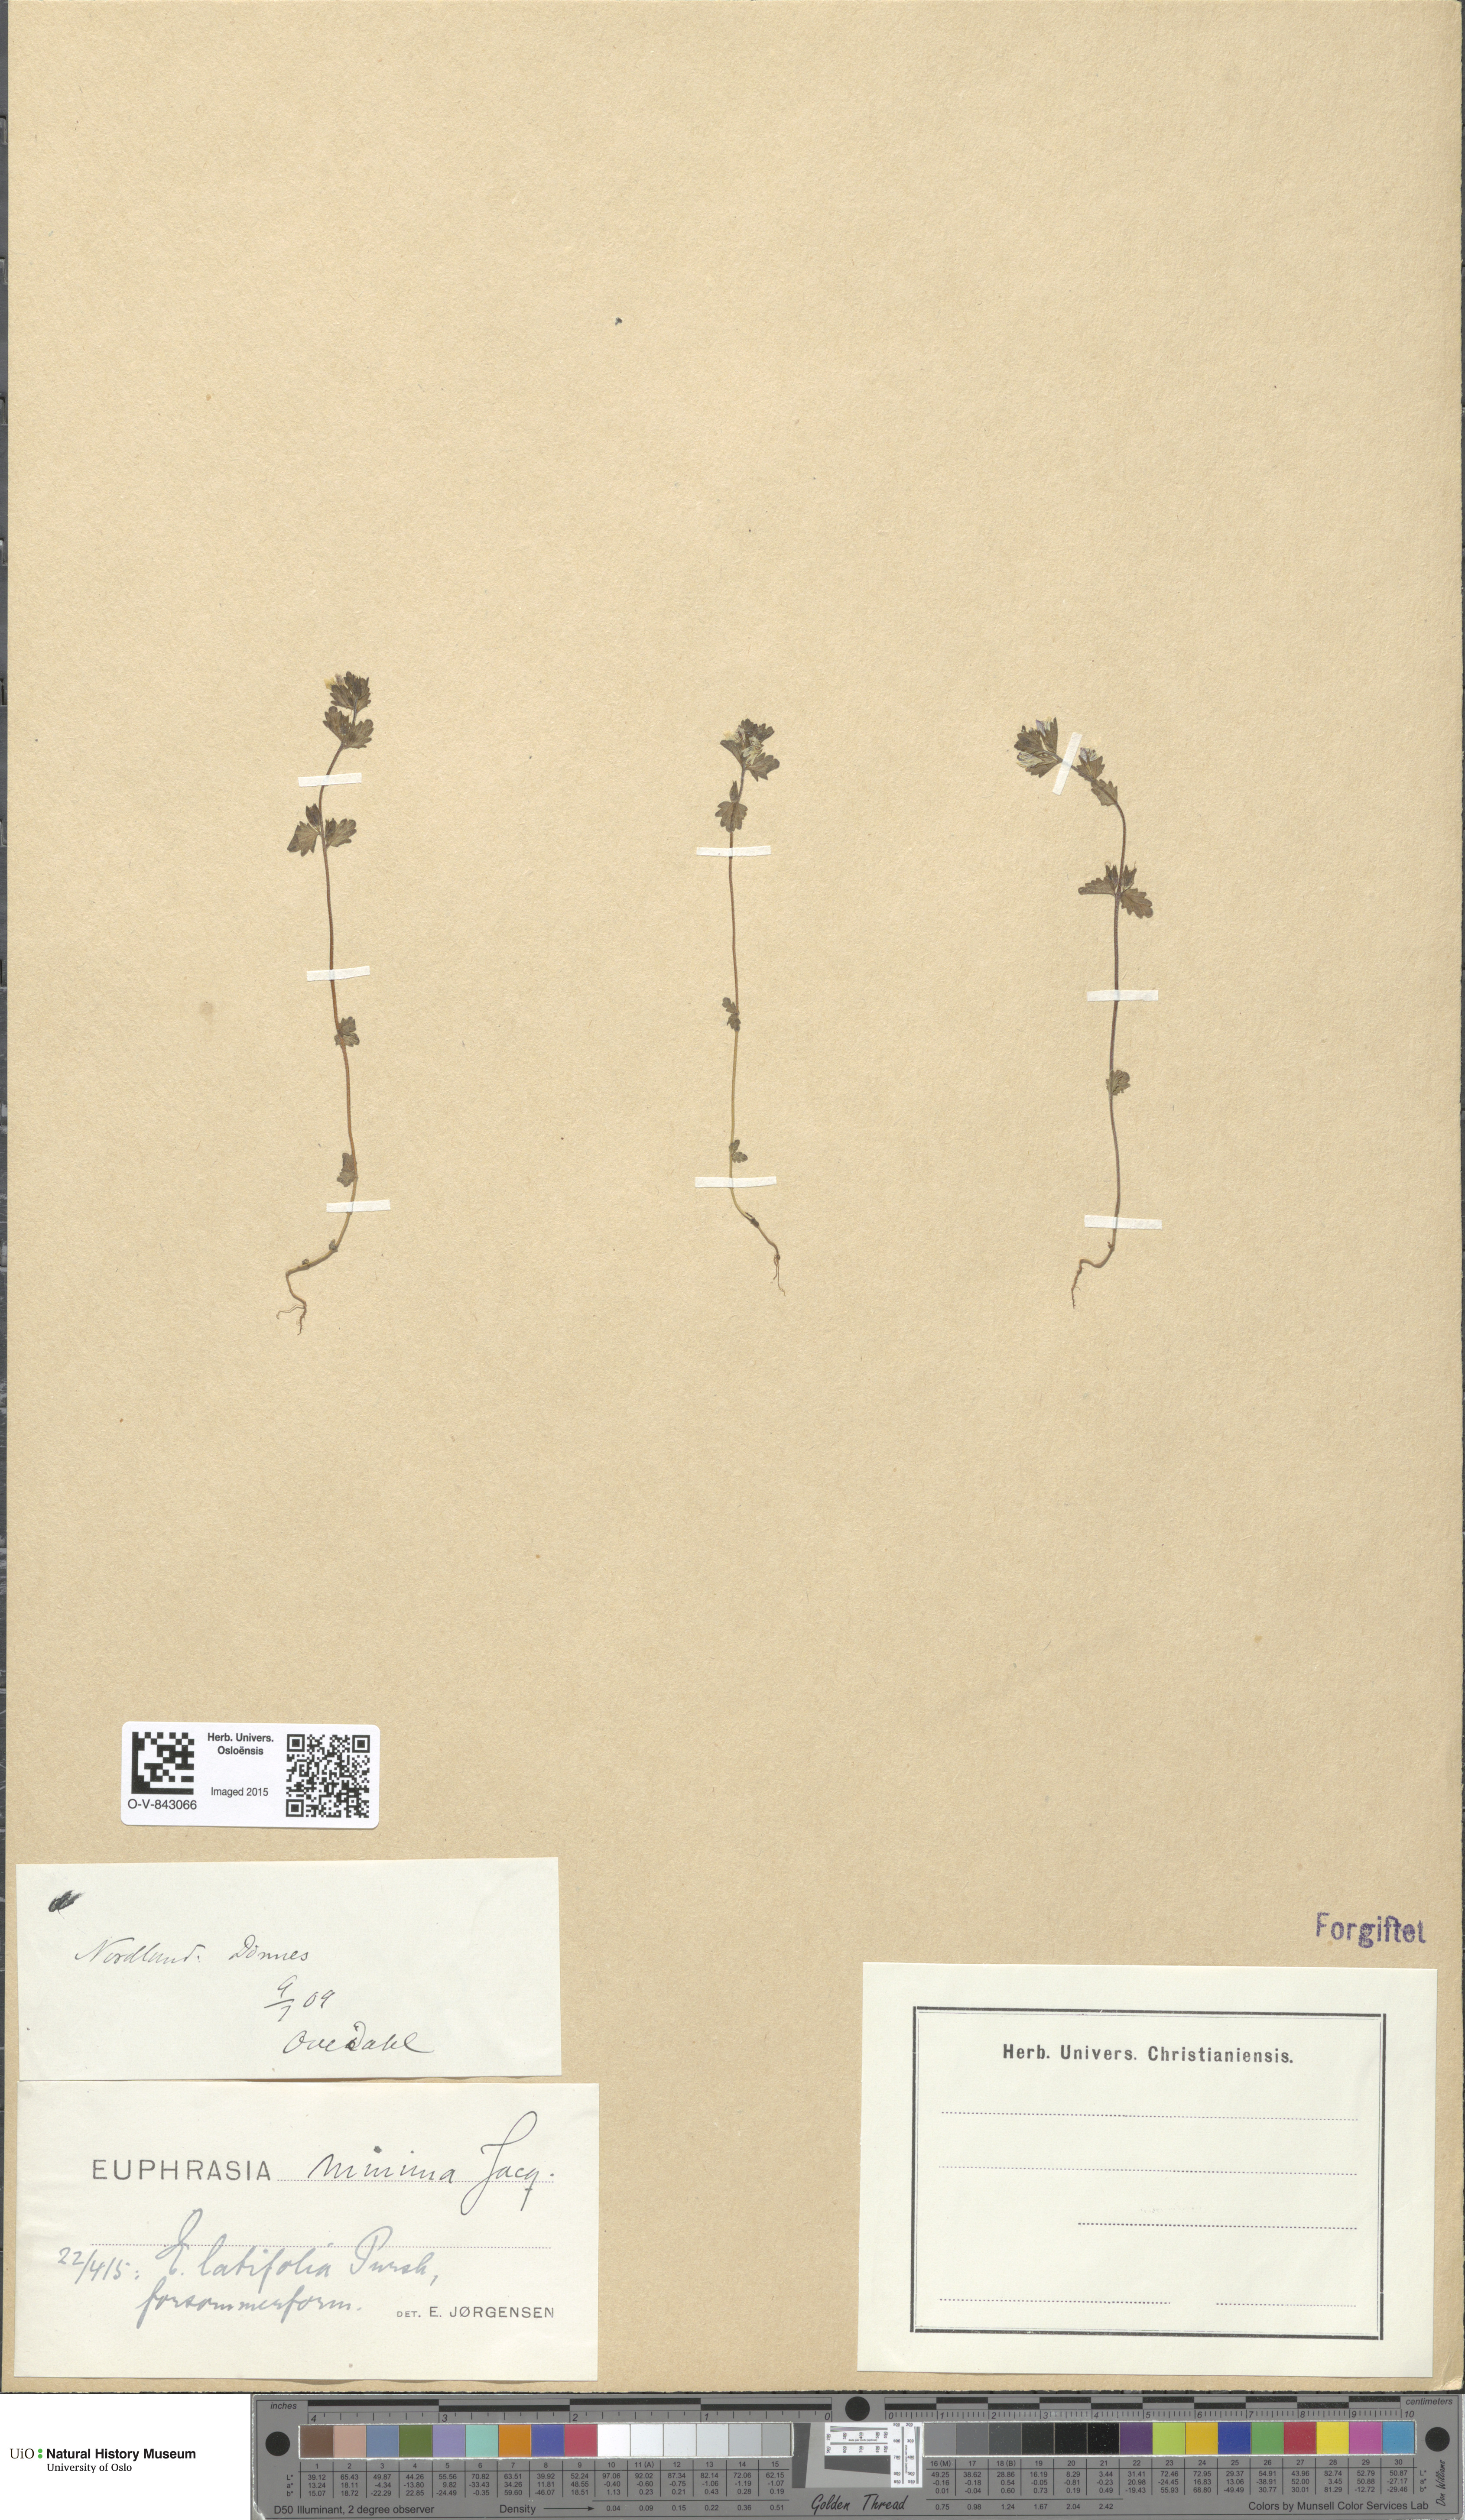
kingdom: Plantae
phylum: Tracheophyta
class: Magnoliopsida
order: Lamiales
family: Orobanchaceae
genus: Euphrasia
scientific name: Euphrasia wettsteinii
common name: Wettstein's eyebright
